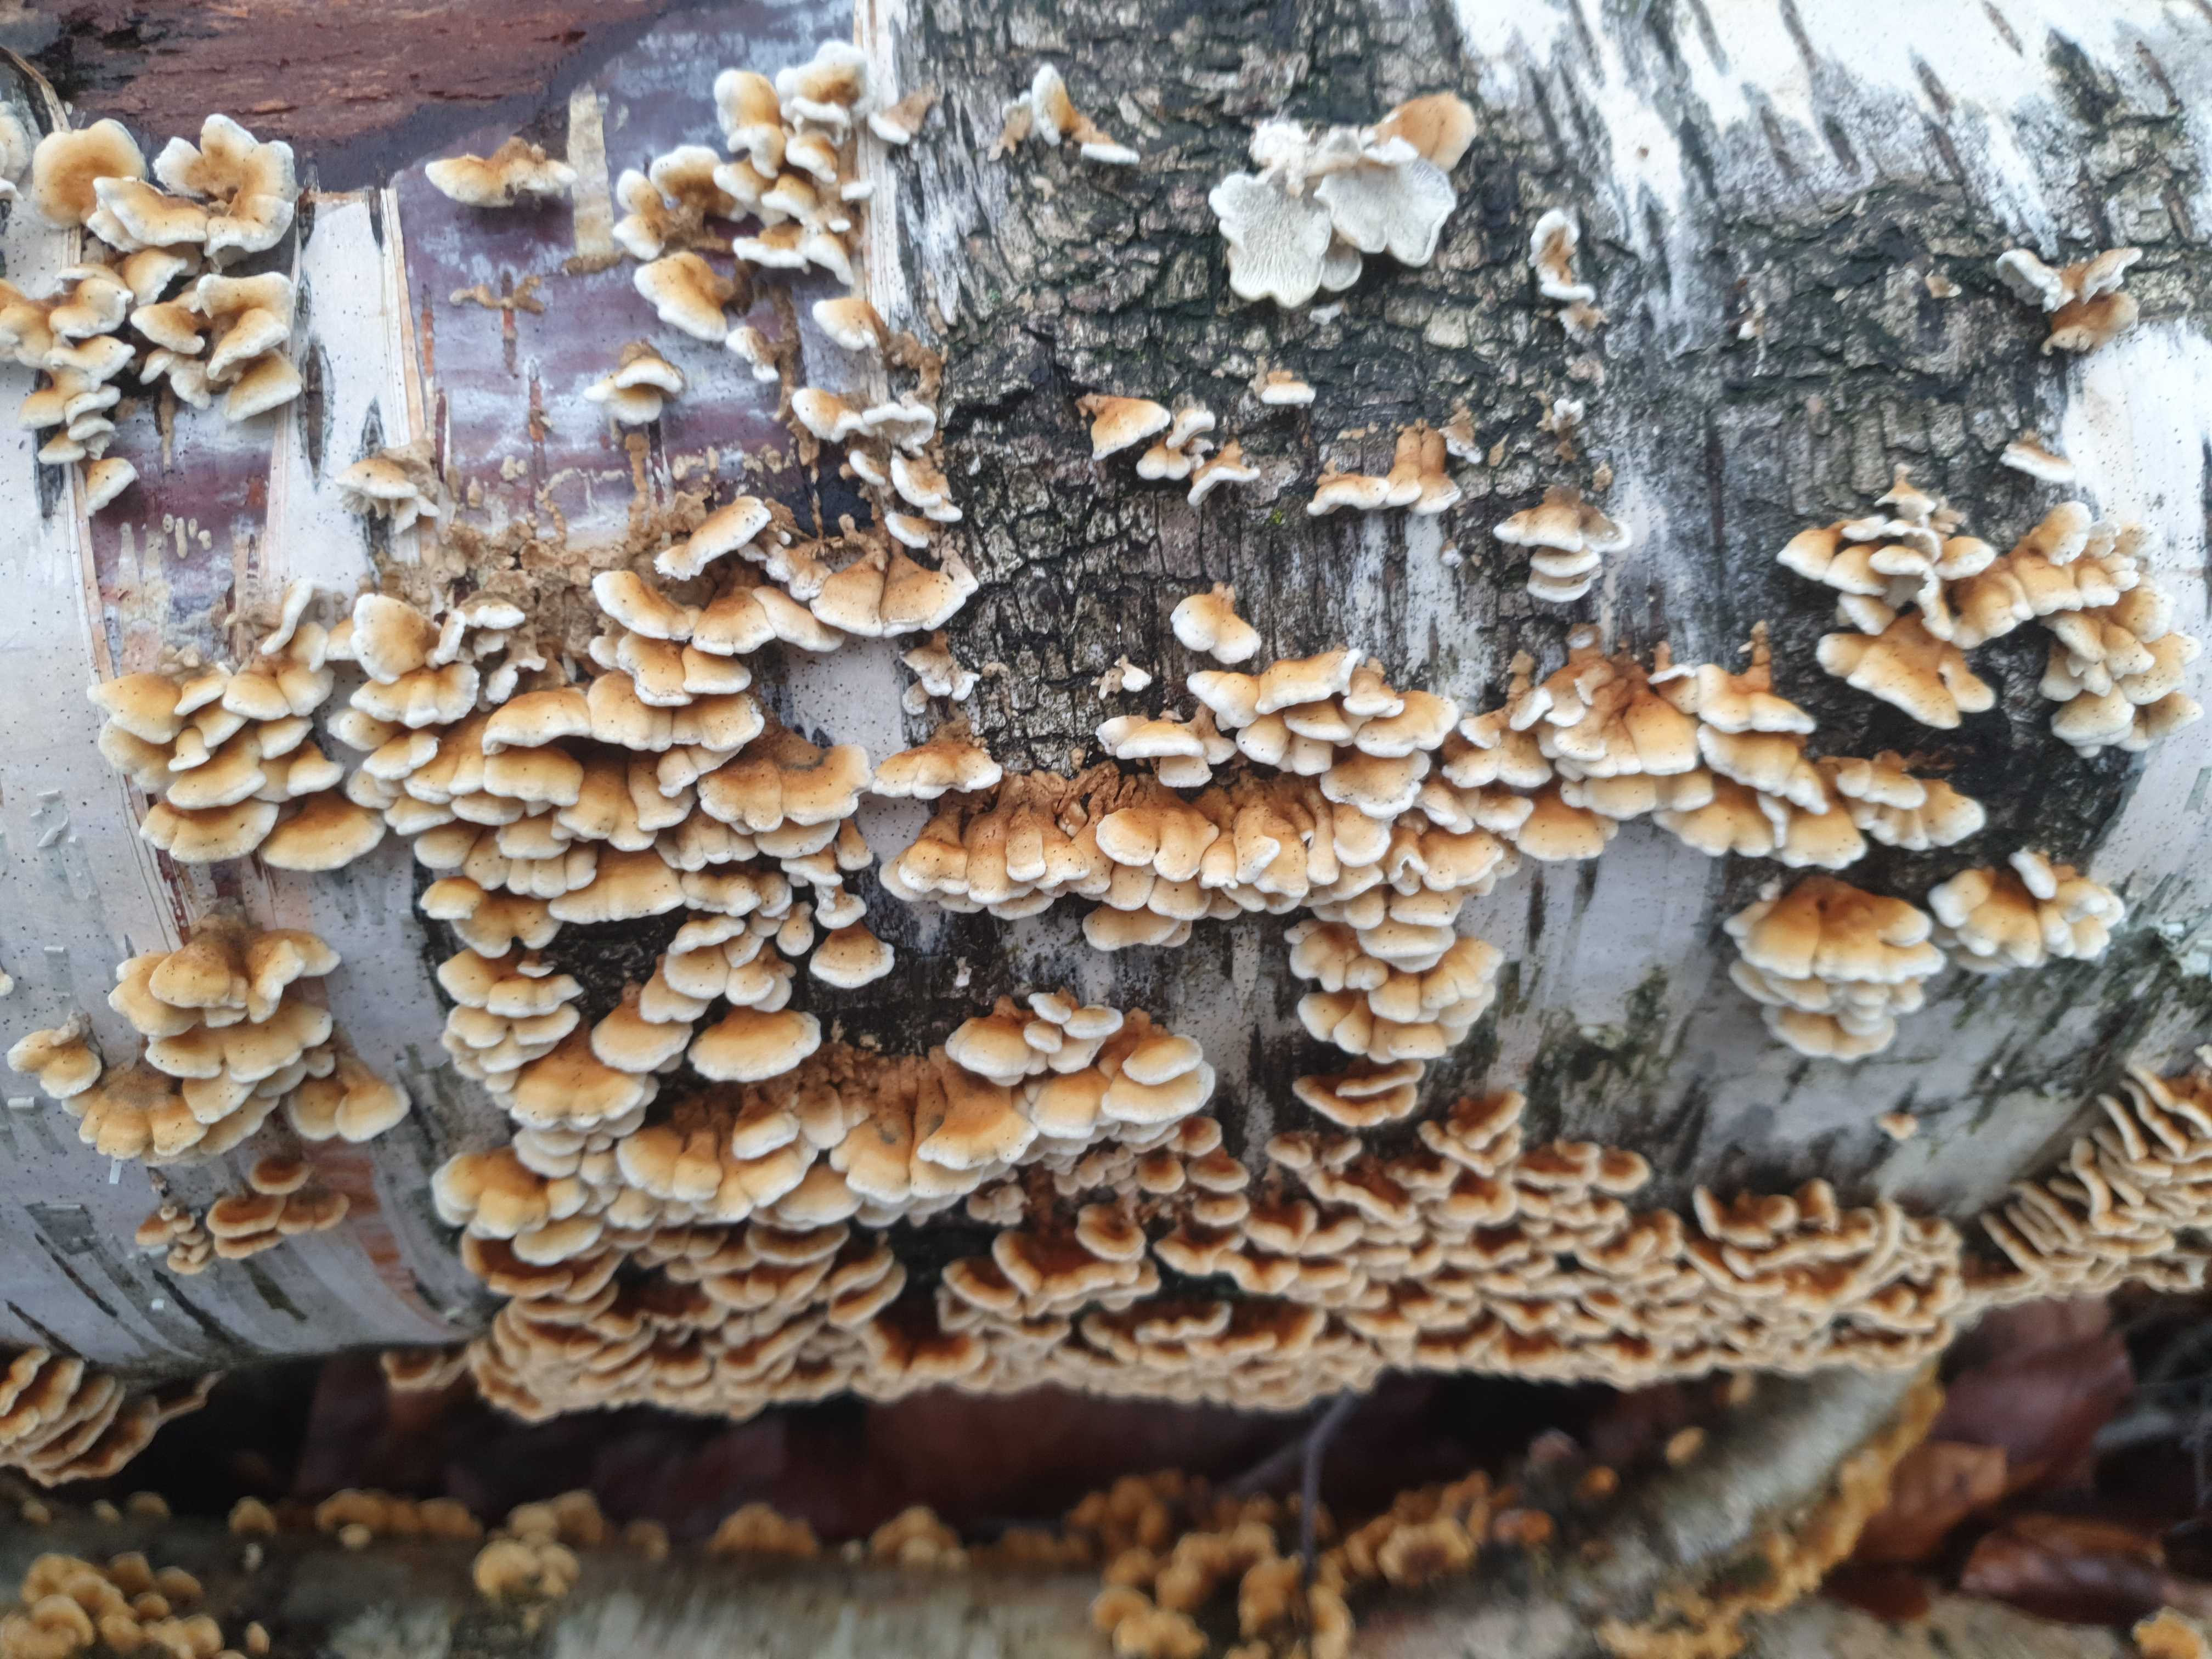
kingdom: Fungi
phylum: Basidiomycota
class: Agaricomycetes
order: Amylocorticiales
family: Amylocorticiaceae
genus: Plicaturopsis
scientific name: Plicaturopsis crispa
